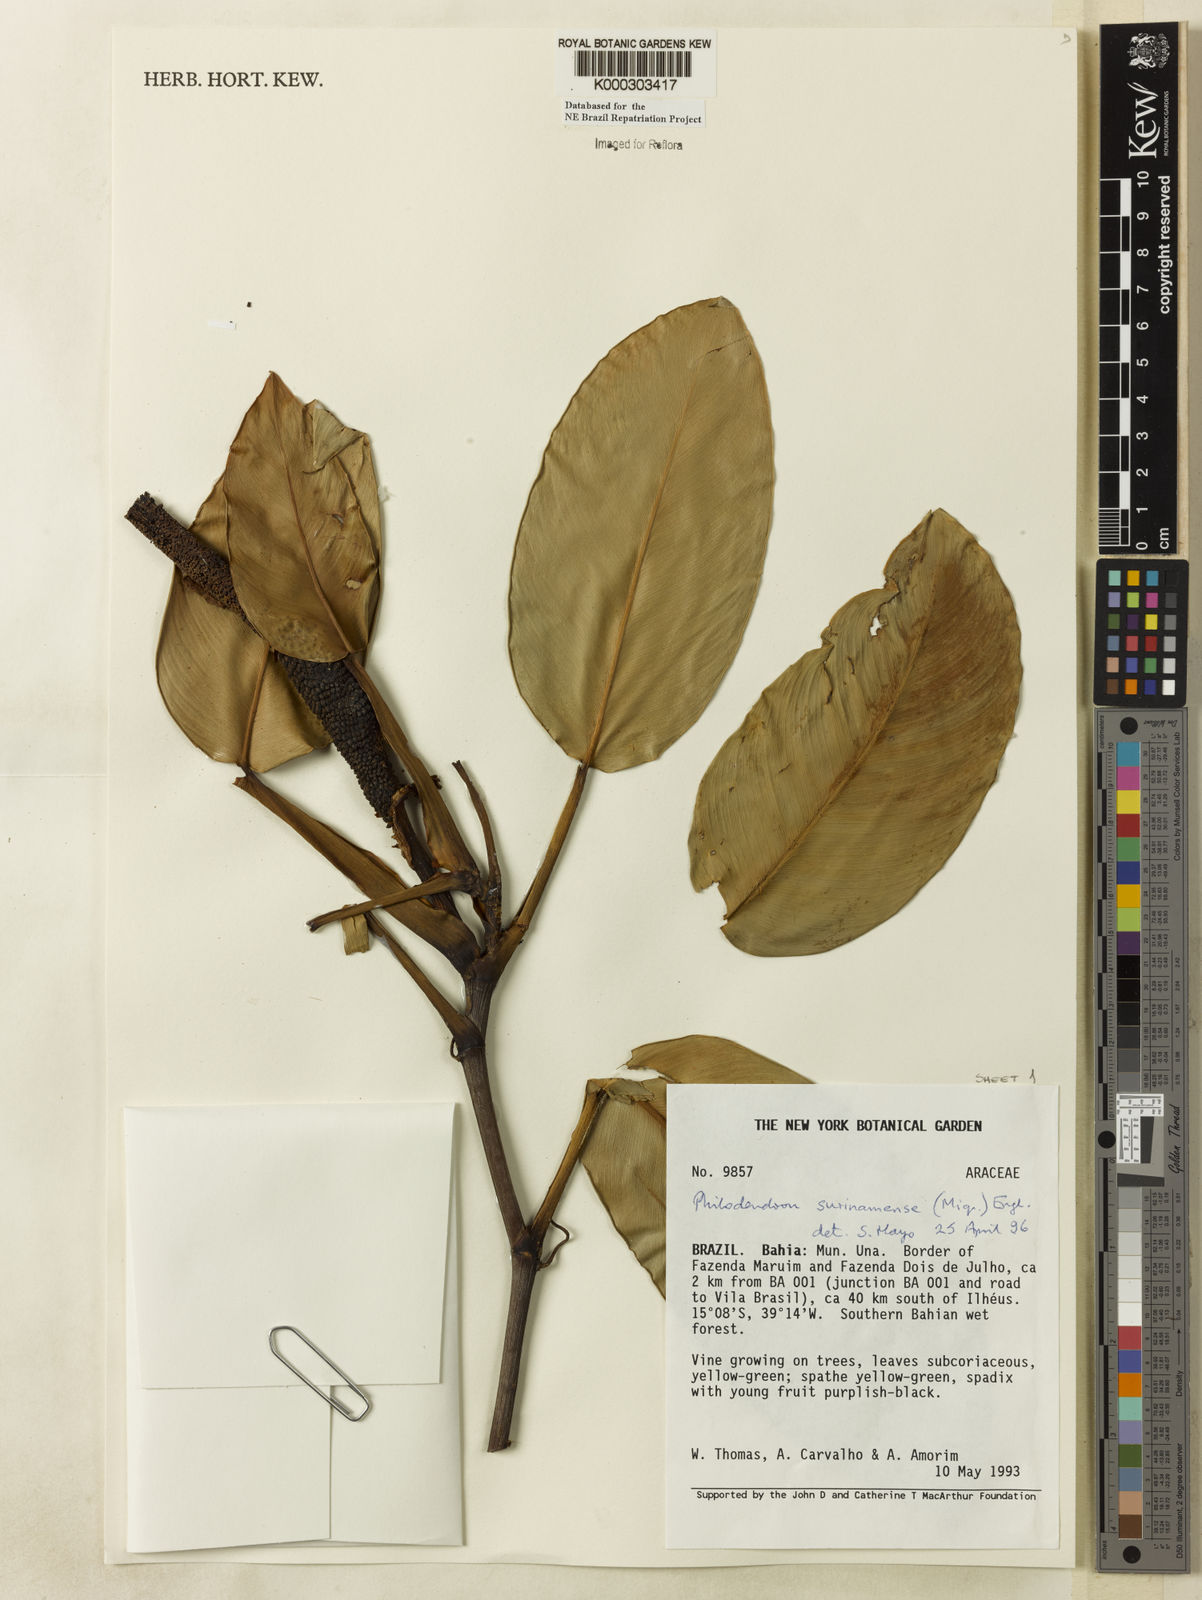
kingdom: Plantae
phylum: Tracheophyta
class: Liliopsida
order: Alismatales
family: Araceae
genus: Philodendron
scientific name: Philodendron surinamense
